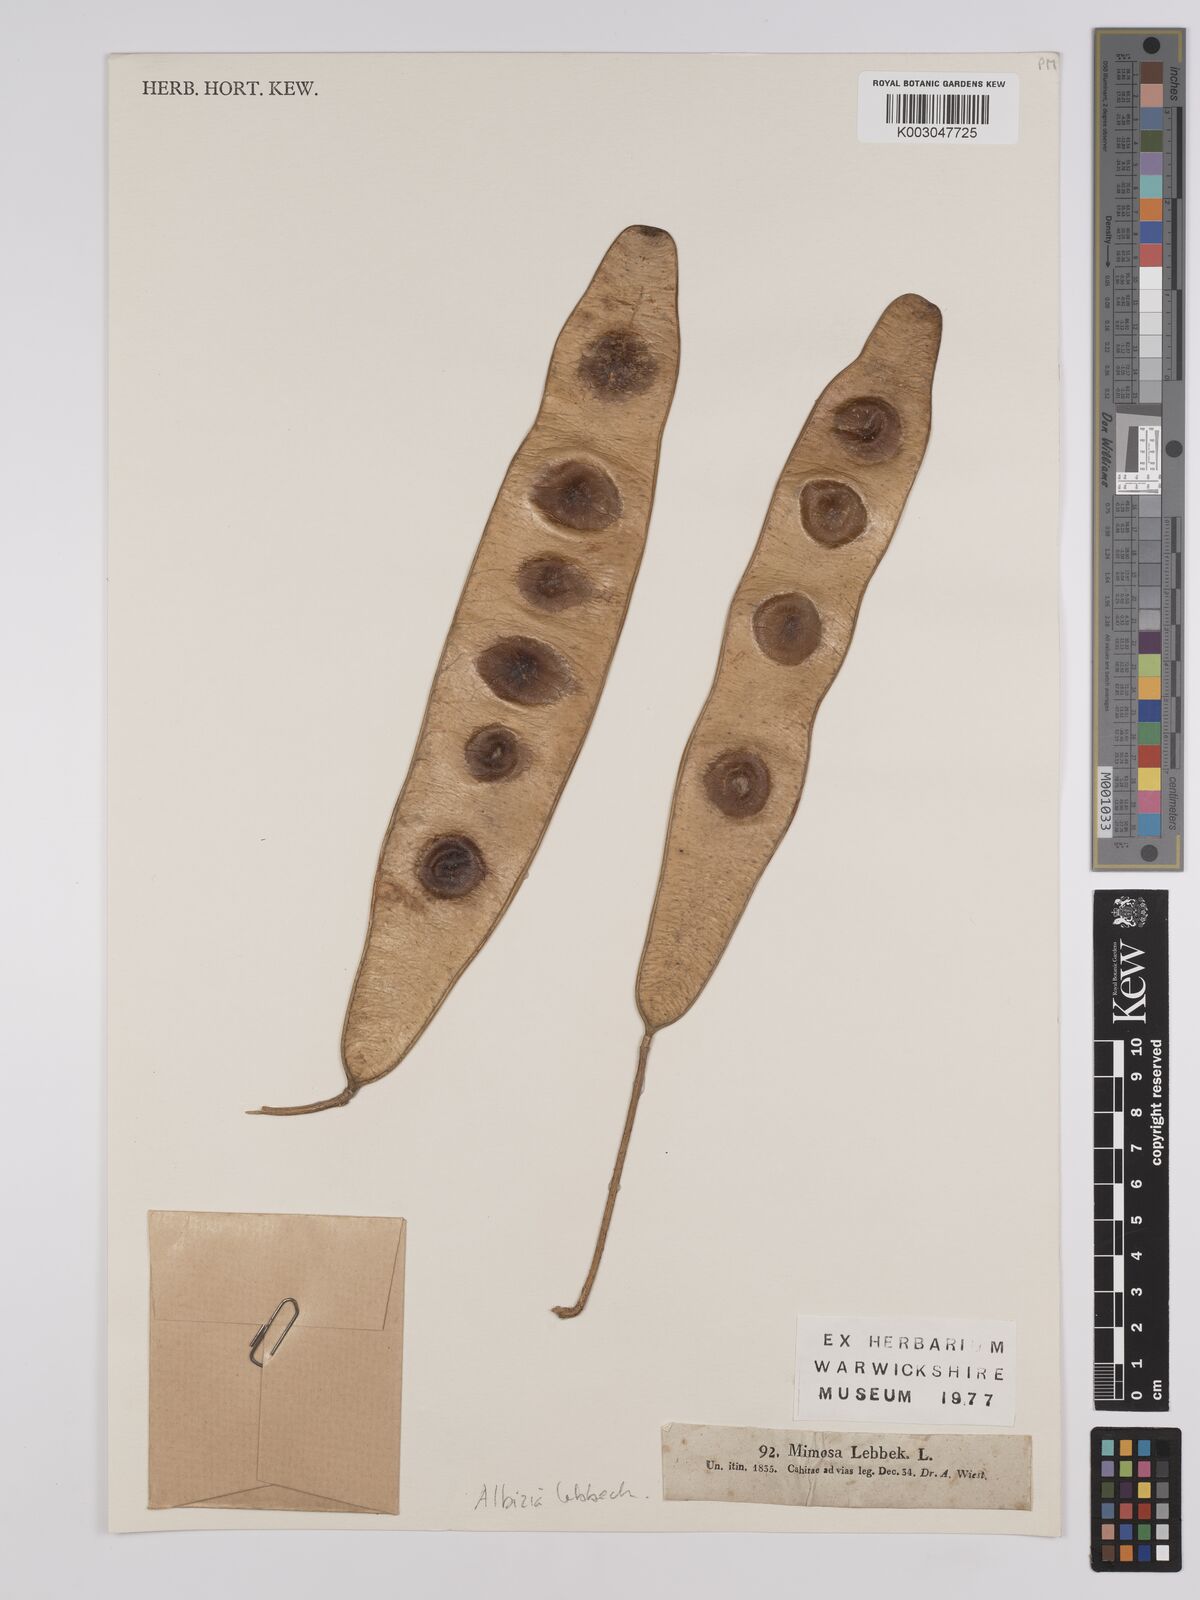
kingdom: Plantae
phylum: Tracheophyta
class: Magnoliopsida
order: Fabales
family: Fabaceae
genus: Albizia
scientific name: Albizia lebbeck
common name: Woman's tongue
